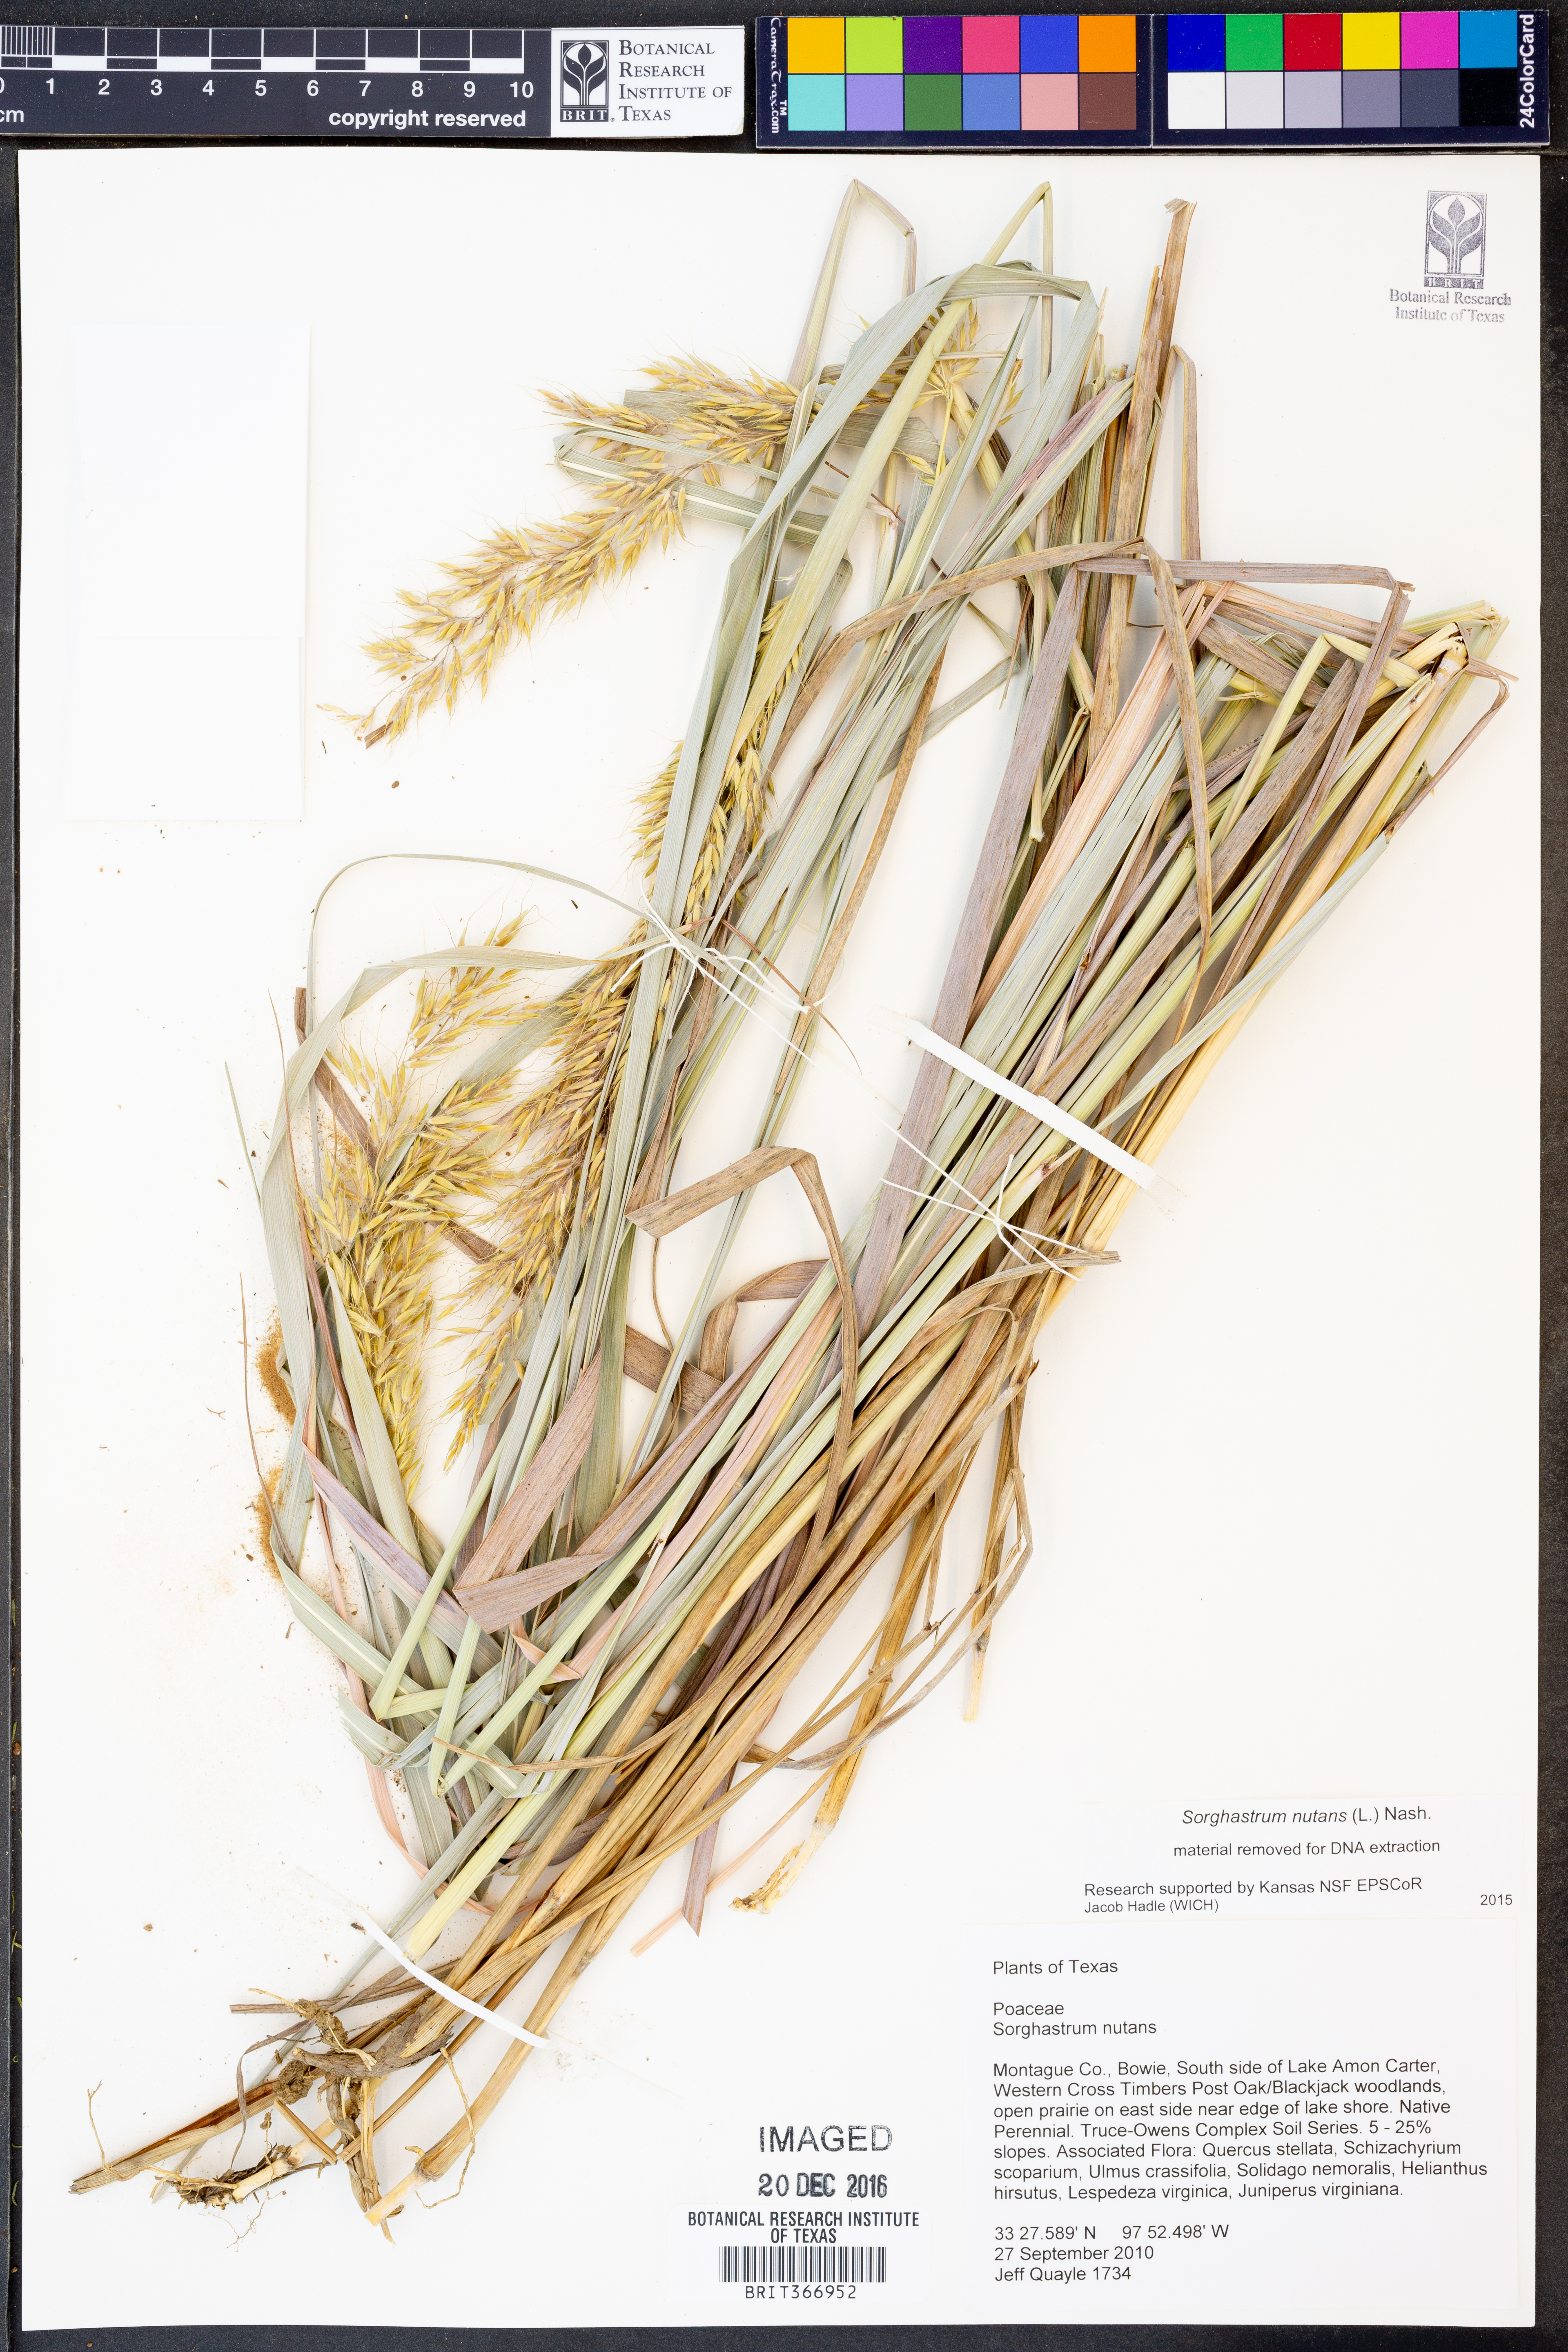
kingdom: Plantae
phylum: Tracheophyta
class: Liliopsida
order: Poales
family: Poaceae
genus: Sorghastrum
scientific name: Sorghastrum nutans
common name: Indian grass
